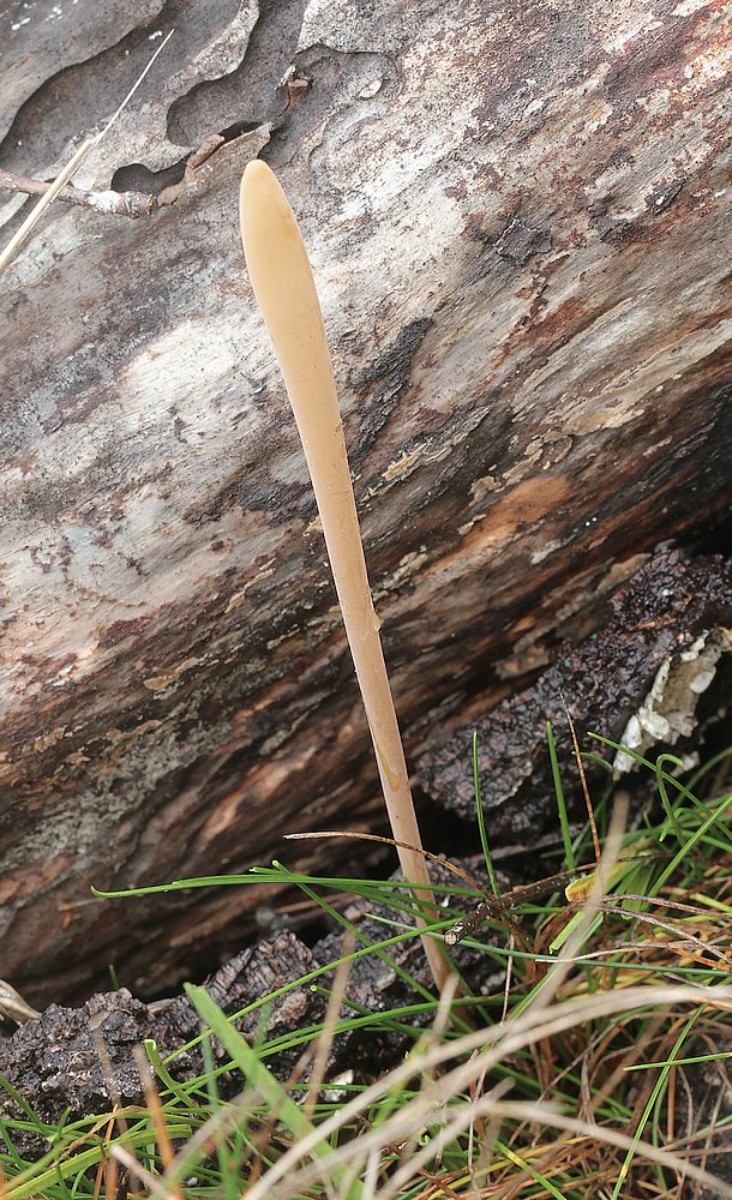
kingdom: Fungi
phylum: Basidiomycota
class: Agaricomycetes
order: Agaricales
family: Typhulaceae
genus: Typhula
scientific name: Typhula fistulosa
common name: pibet rørkølle
